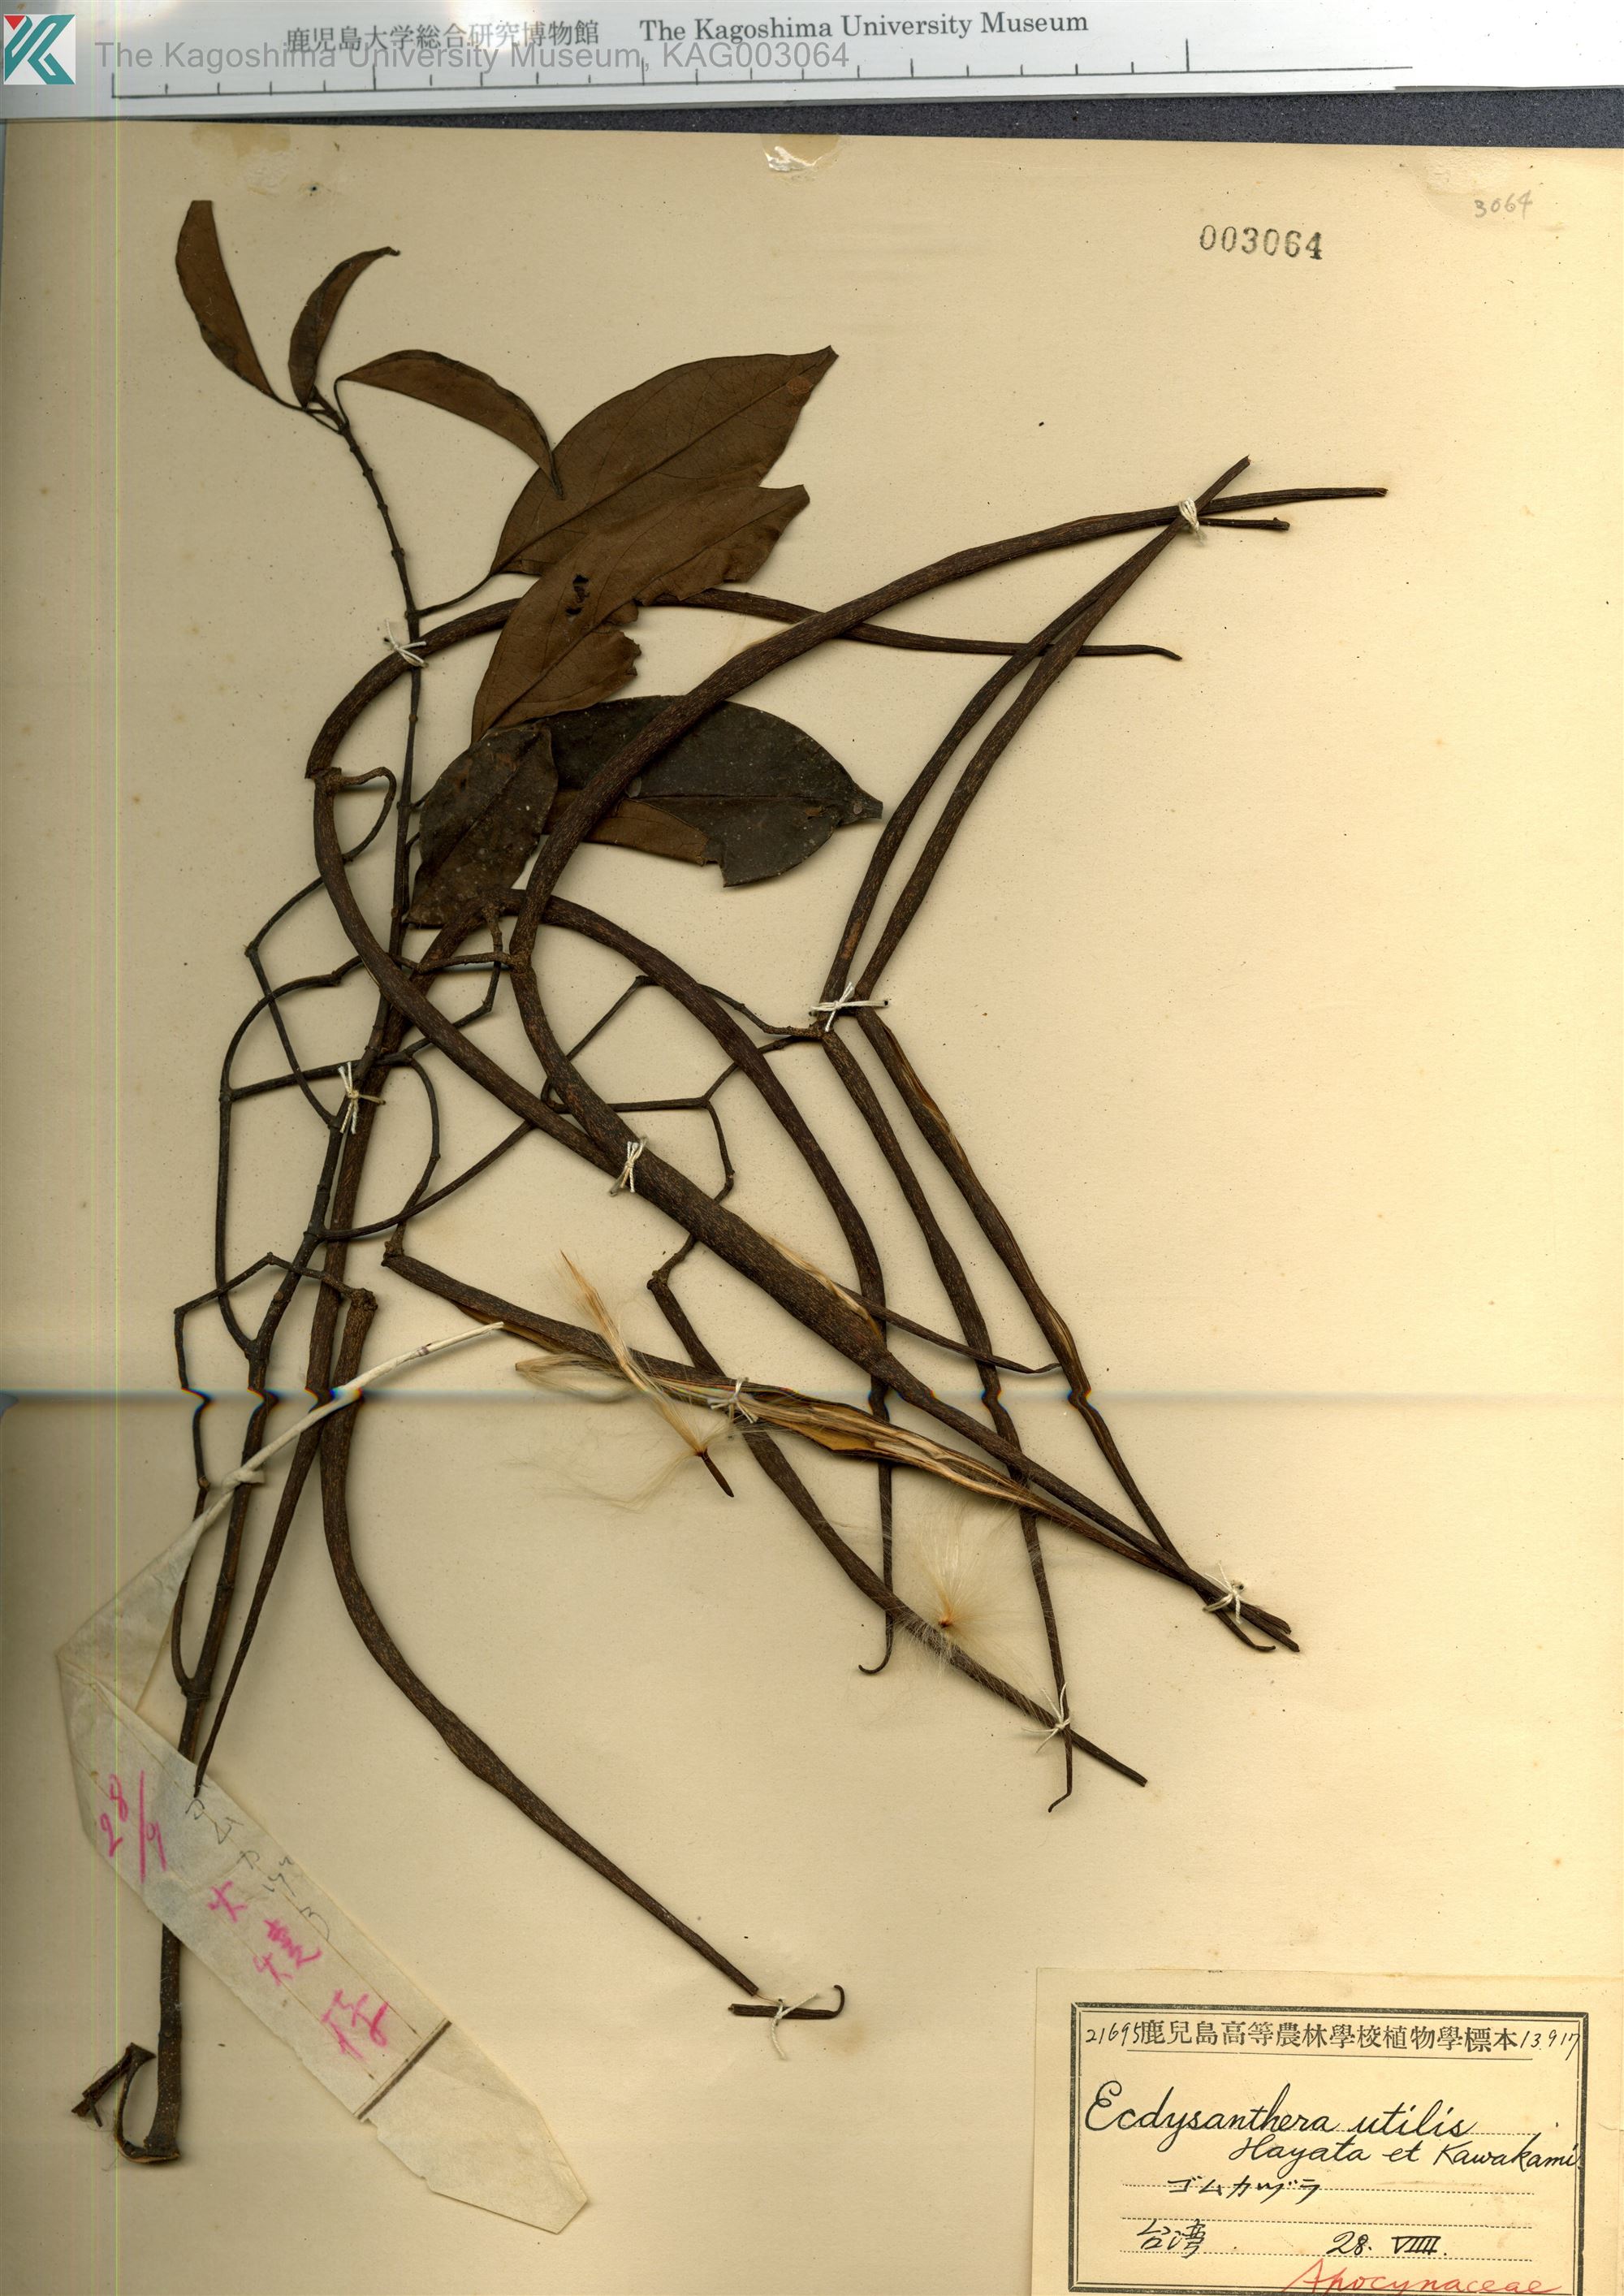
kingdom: Plantae
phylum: Tracheophyta
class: Magnoliopsida
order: Gentianales
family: Apocynaceae
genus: Urceola
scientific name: Urceola micrantha
